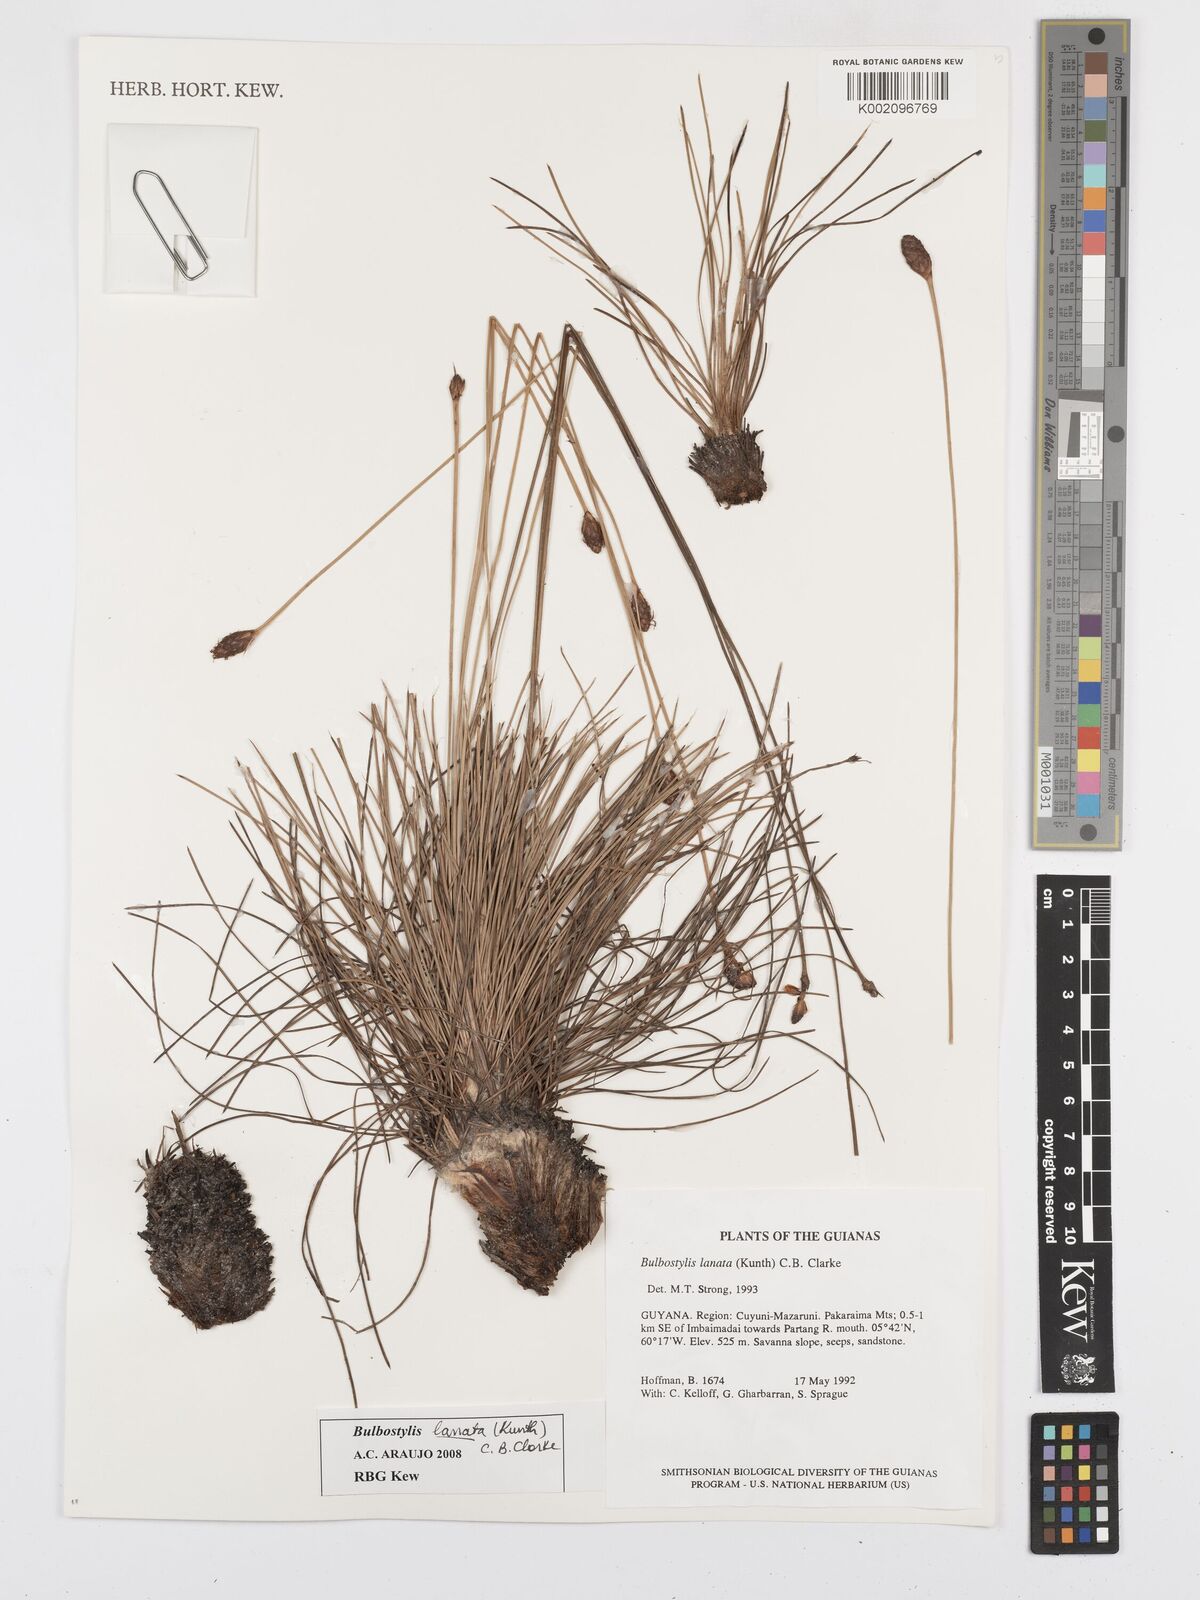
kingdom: Plantae
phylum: Tracheophyta
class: Liliopsida
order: Poales
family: Cyperaceae
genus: Bulbostylis
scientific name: Bulbostylis lanata
